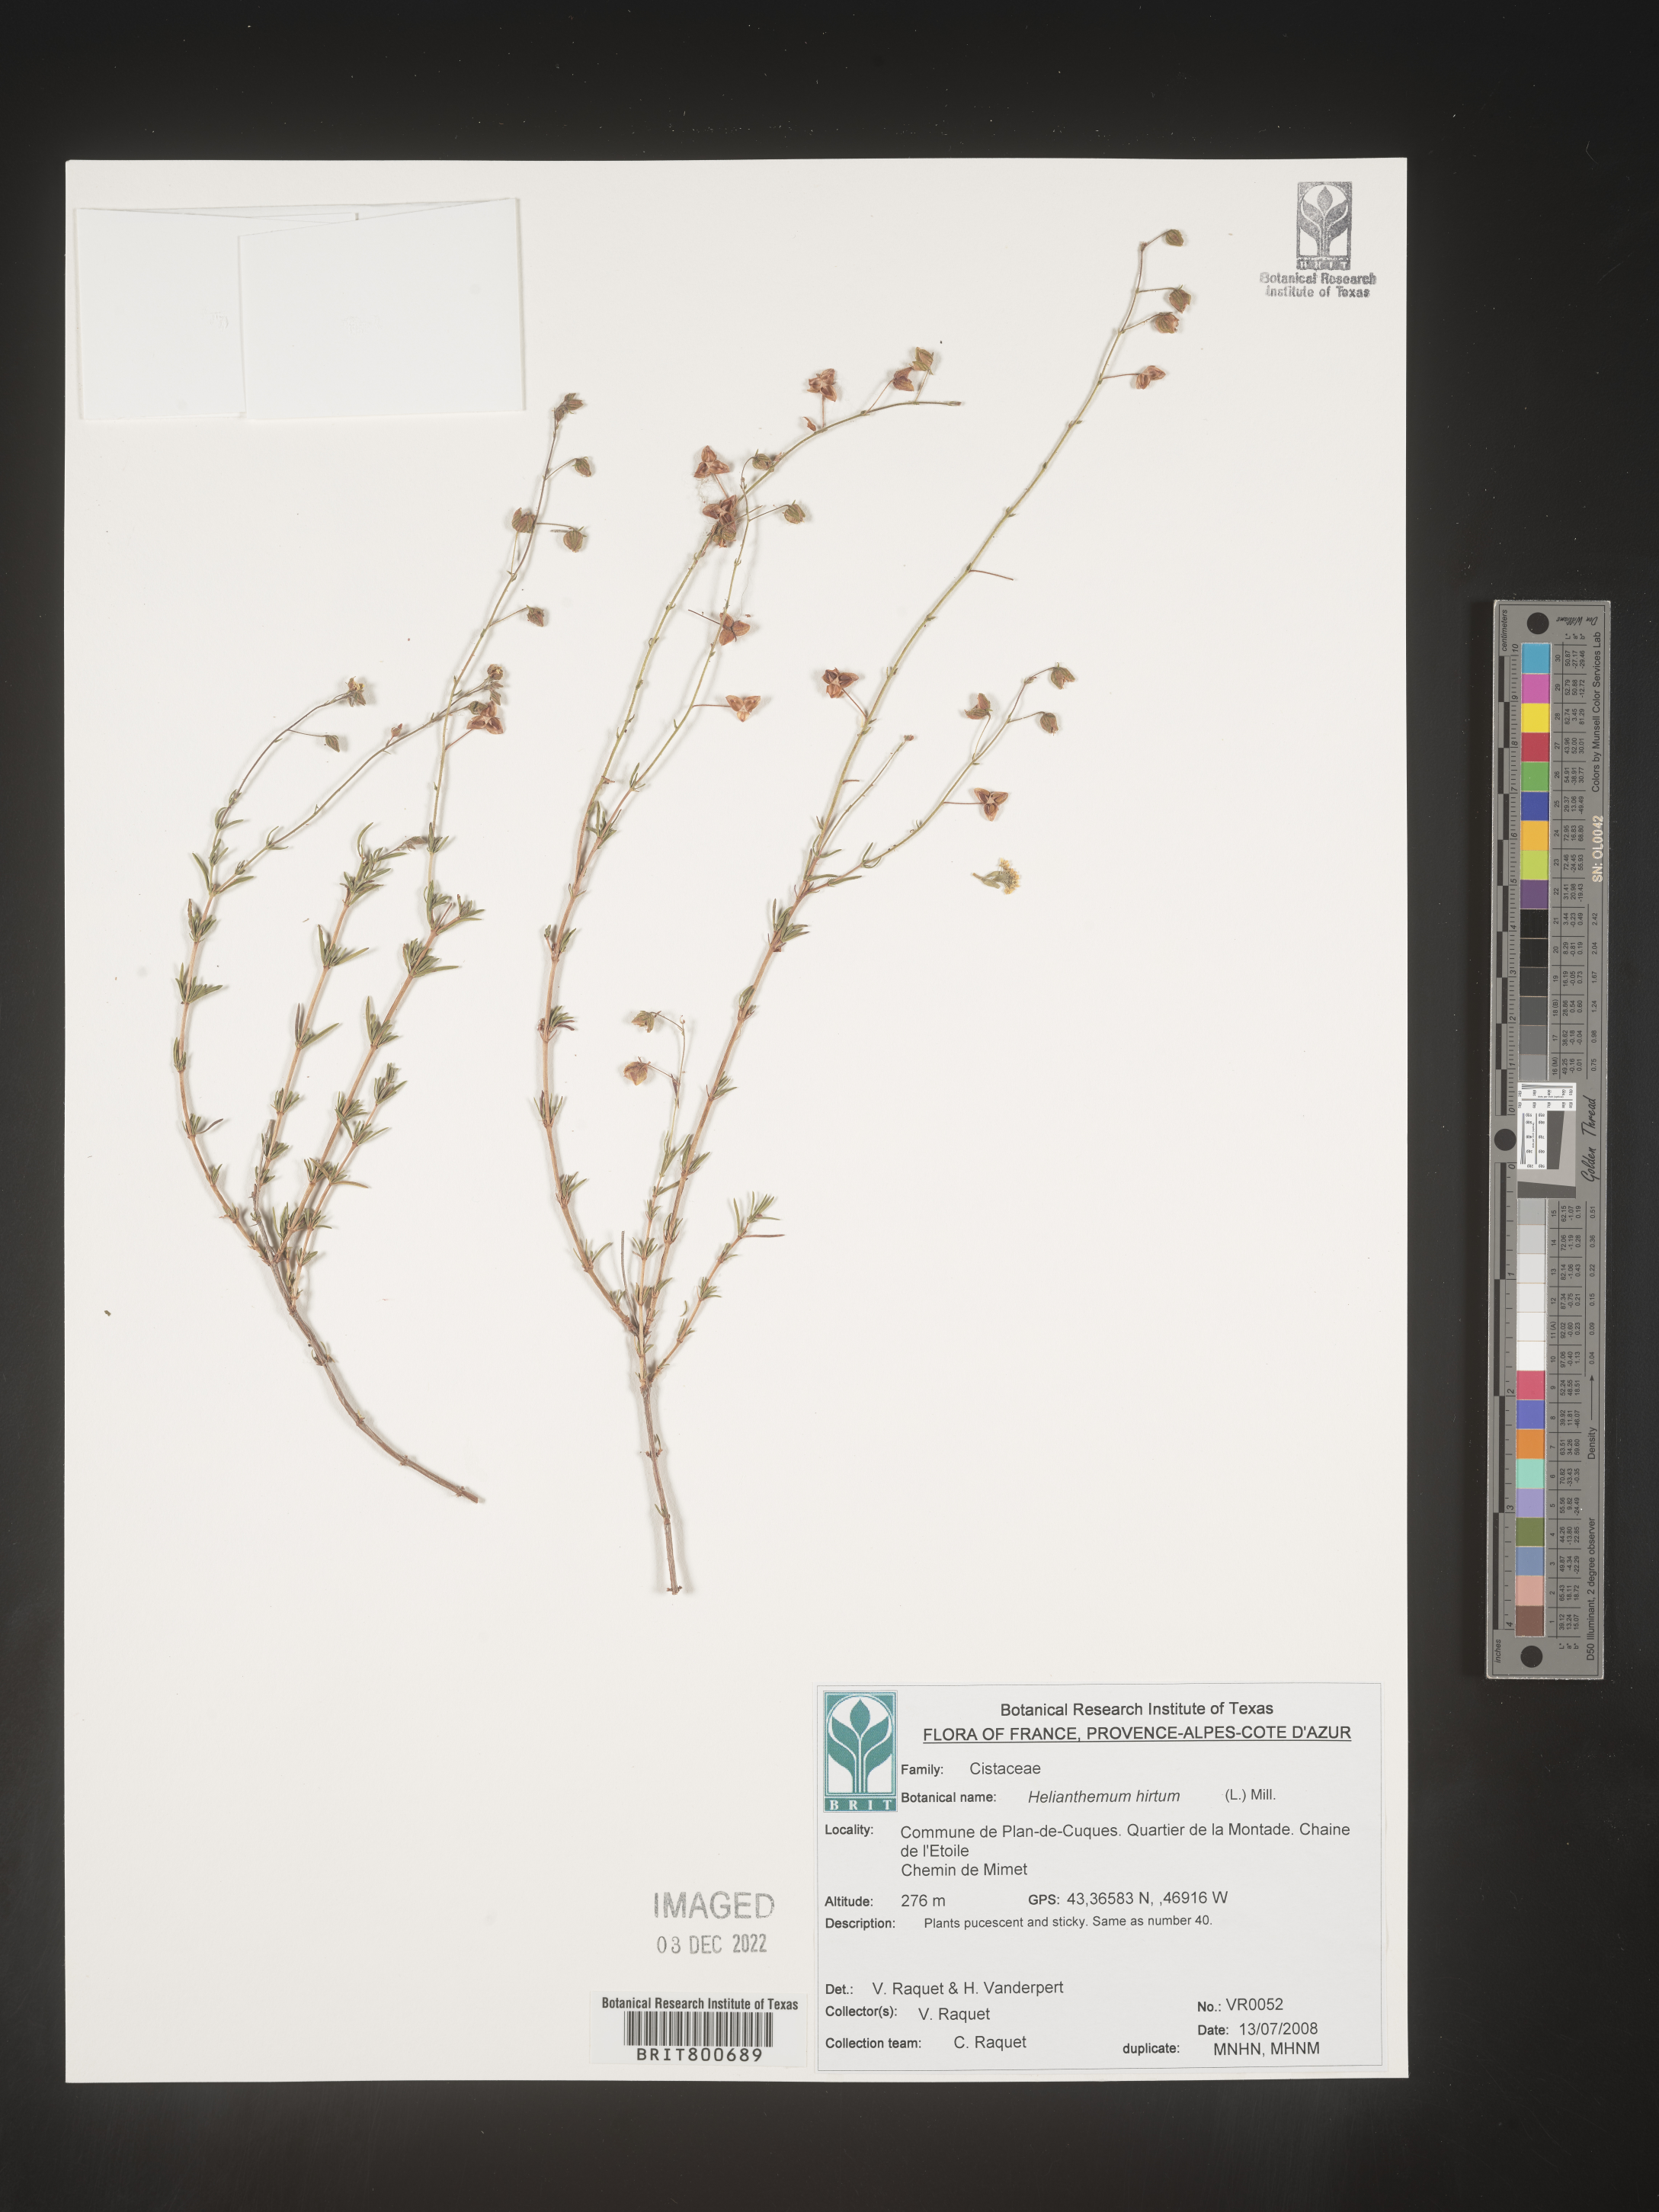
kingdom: Plantae
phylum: Tracheophyta
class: Magnoliopsida
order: Malvales
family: Cistaceae
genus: Helianthemum
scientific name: Helianthemum
